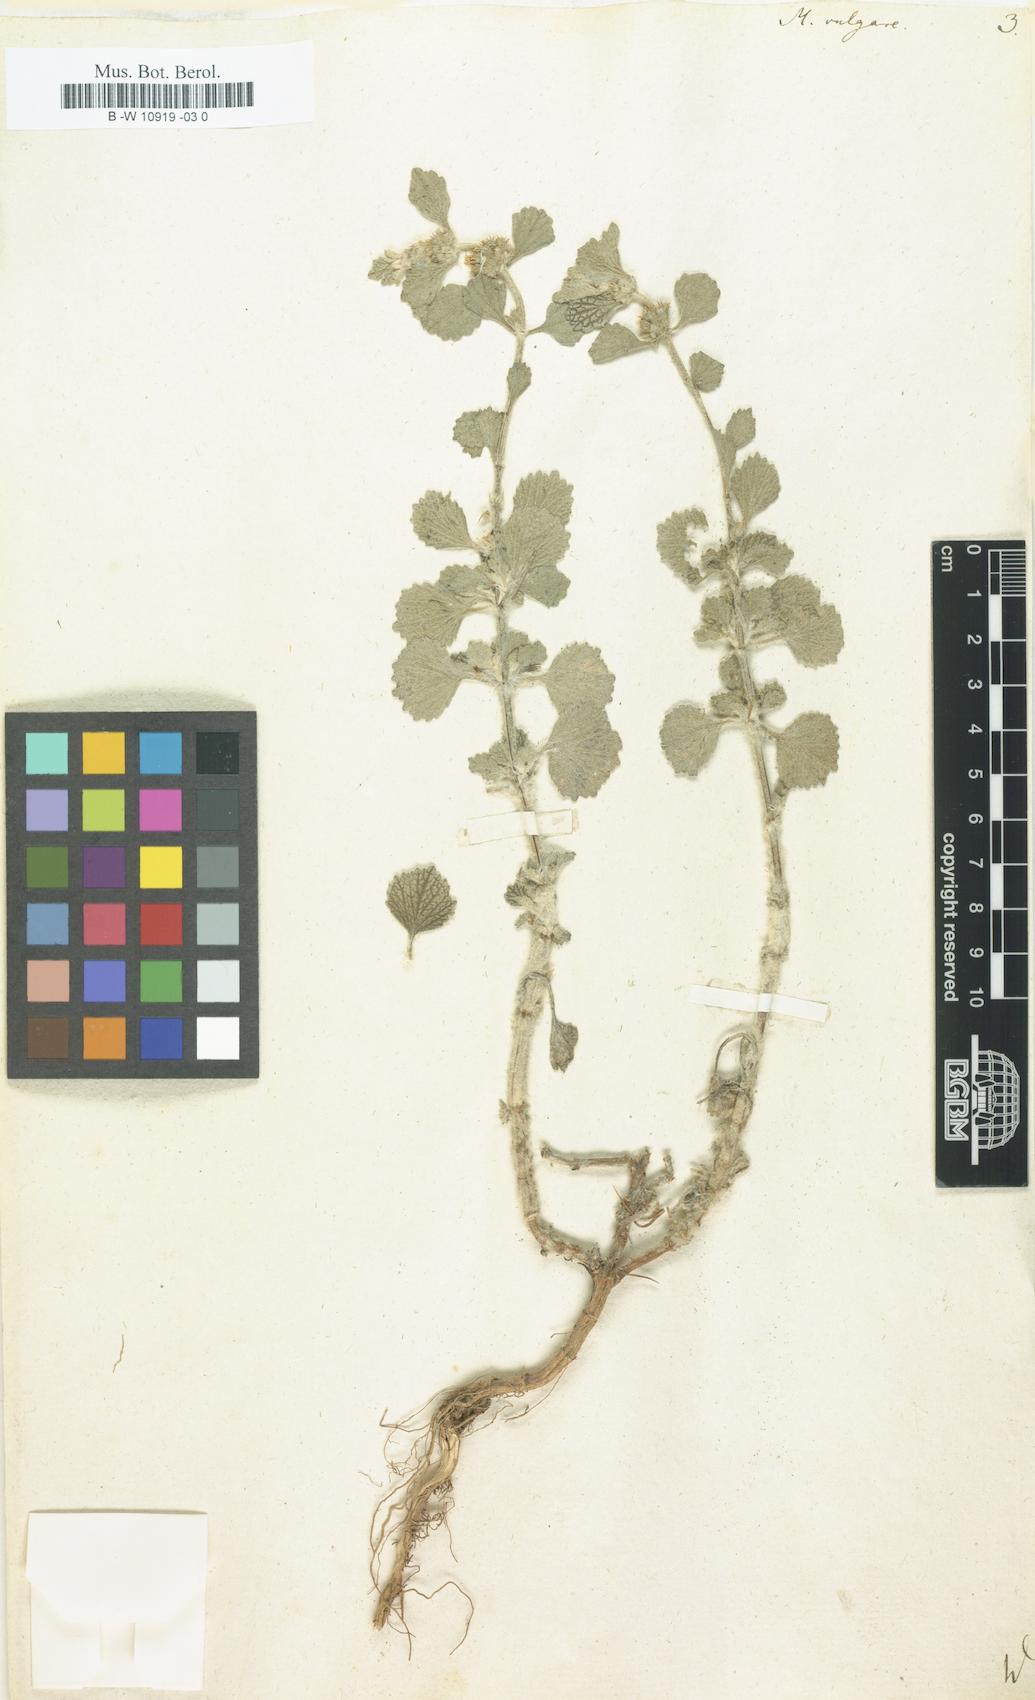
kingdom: Plantae
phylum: Tracheophyta
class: Magnoliopsida
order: Lamiales
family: Lamiaceae
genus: Marrubium
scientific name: Marrubium vulgare
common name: Horehound
